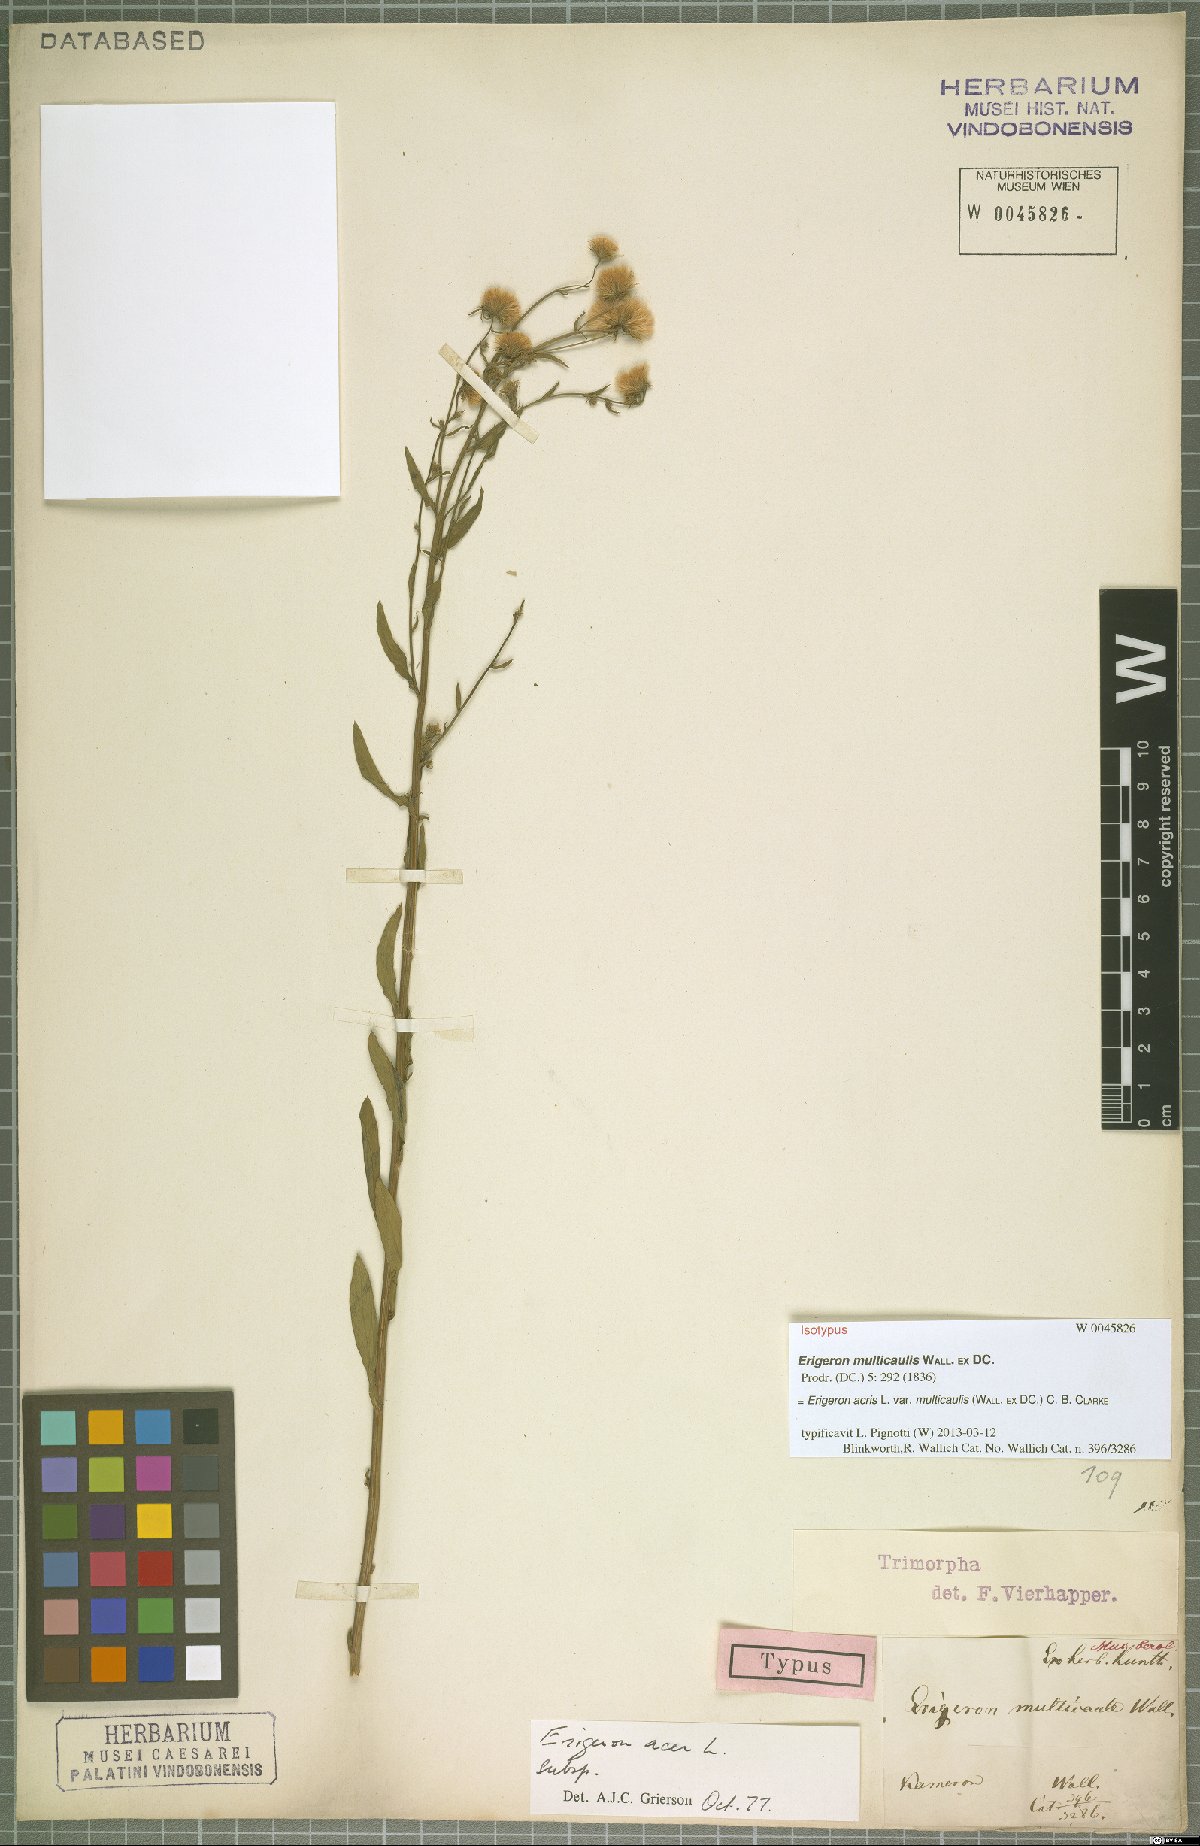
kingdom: Plantae
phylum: Tracheophyta
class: Magnoliopsida
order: Asterales
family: Asteraceae
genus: Erigeron
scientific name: Erigeron acris
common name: Blue fleabane
